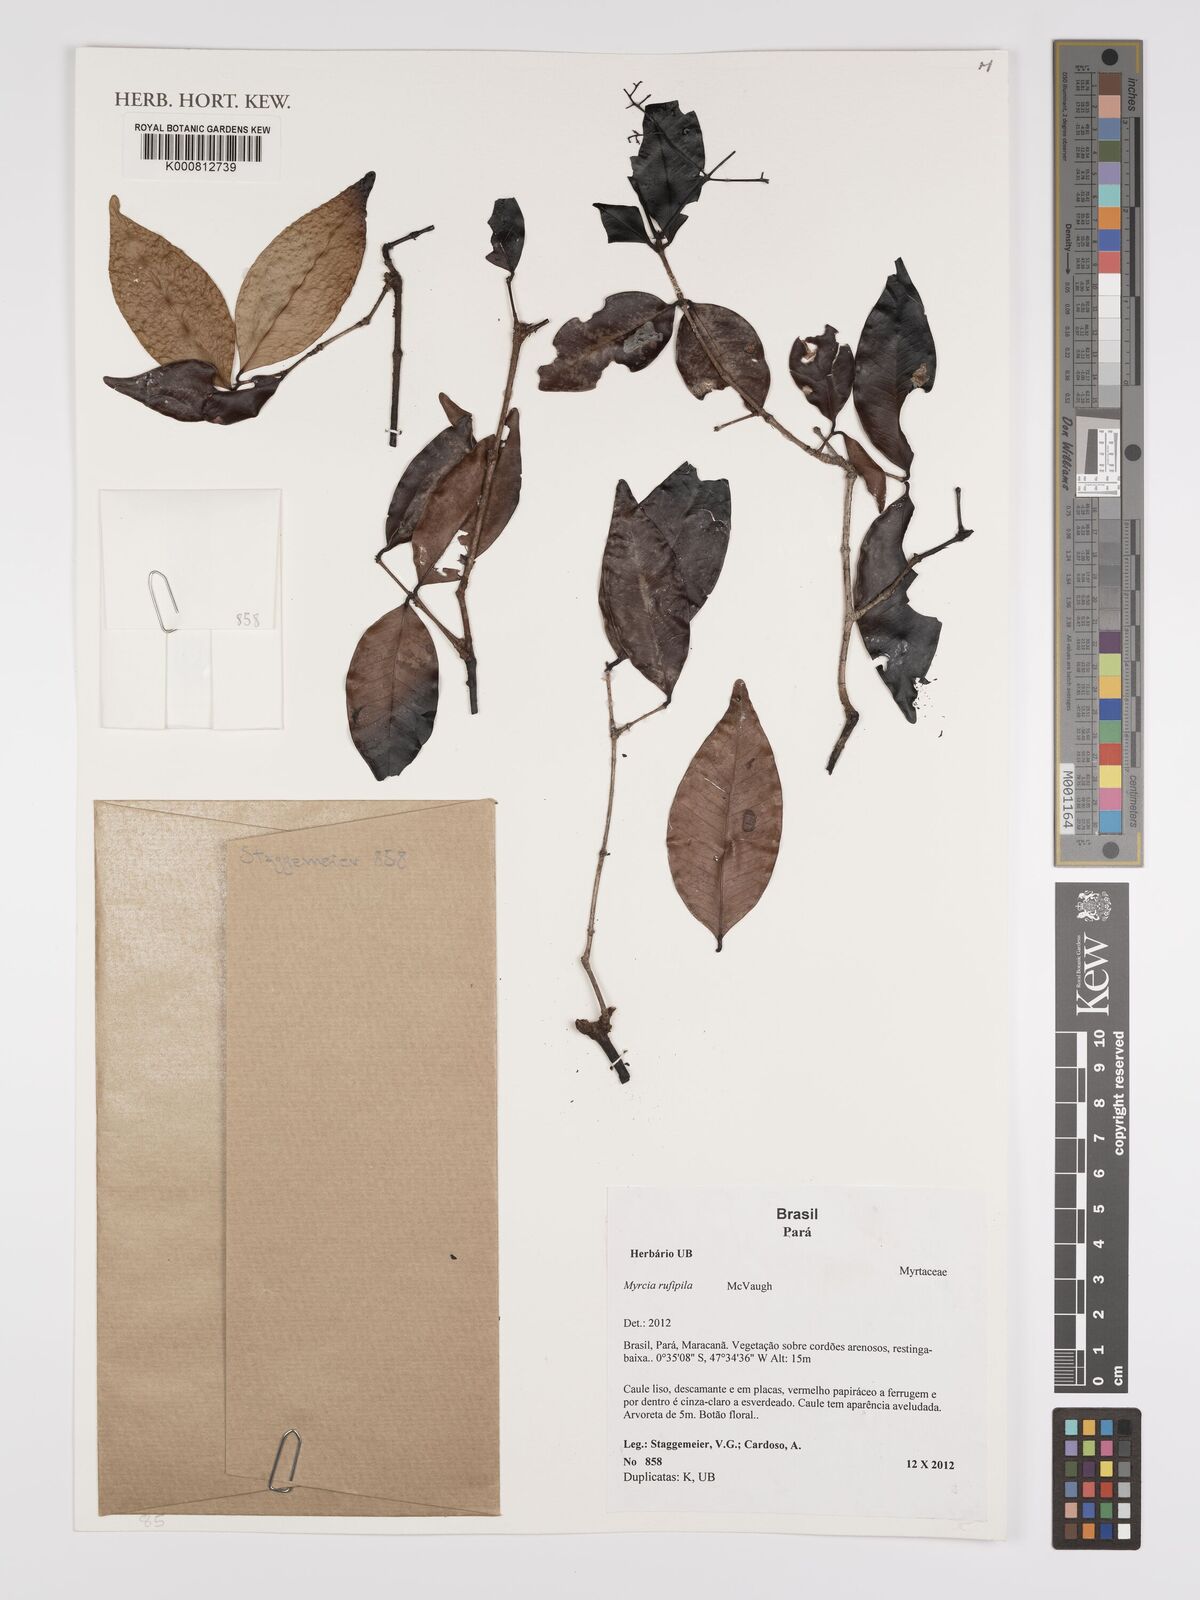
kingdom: Plantae
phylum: Tracheophyta
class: Magnoliopsida
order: Myrtales
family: Myrtaceae
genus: Myrcia
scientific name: Myrcia rufipila
